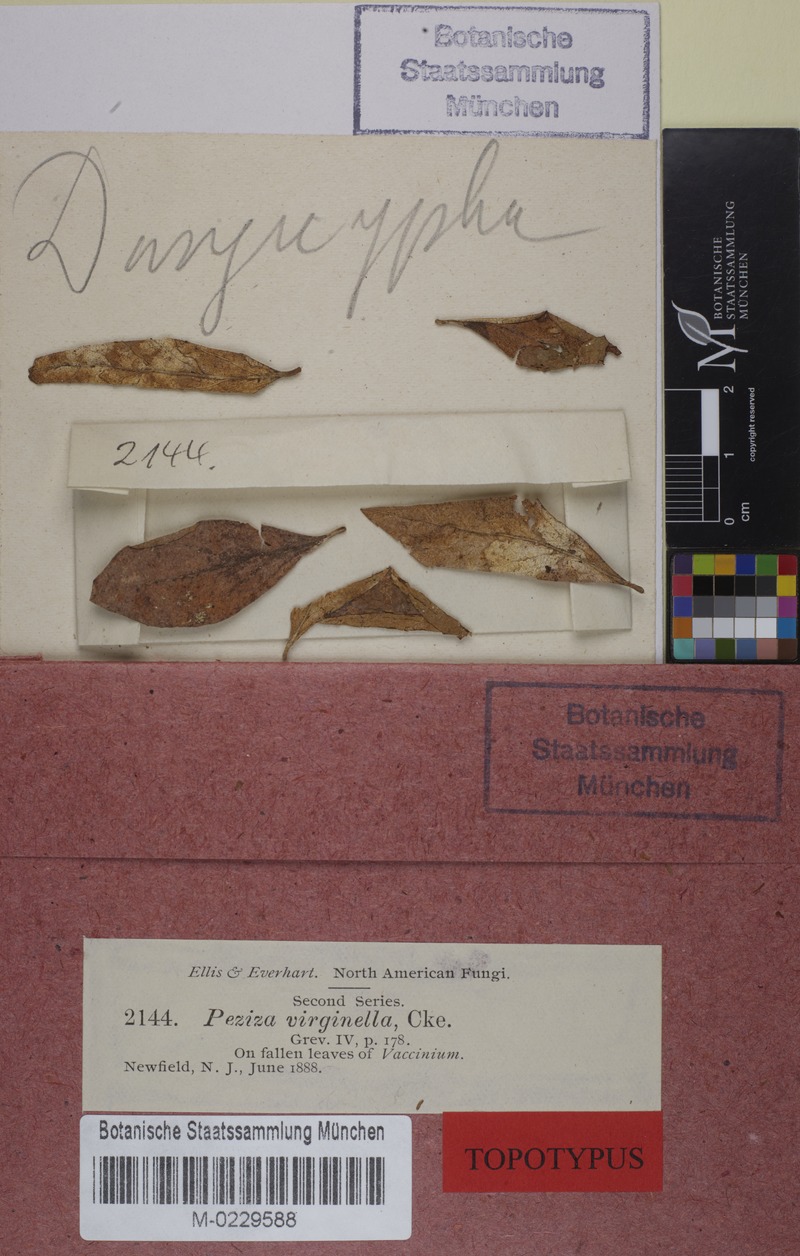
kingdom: Fungi
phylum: Ascomycota
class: Leotiomycetes
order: Helotiales
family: Lachnaceae
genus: Capitotricha
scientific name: Capitotricha
